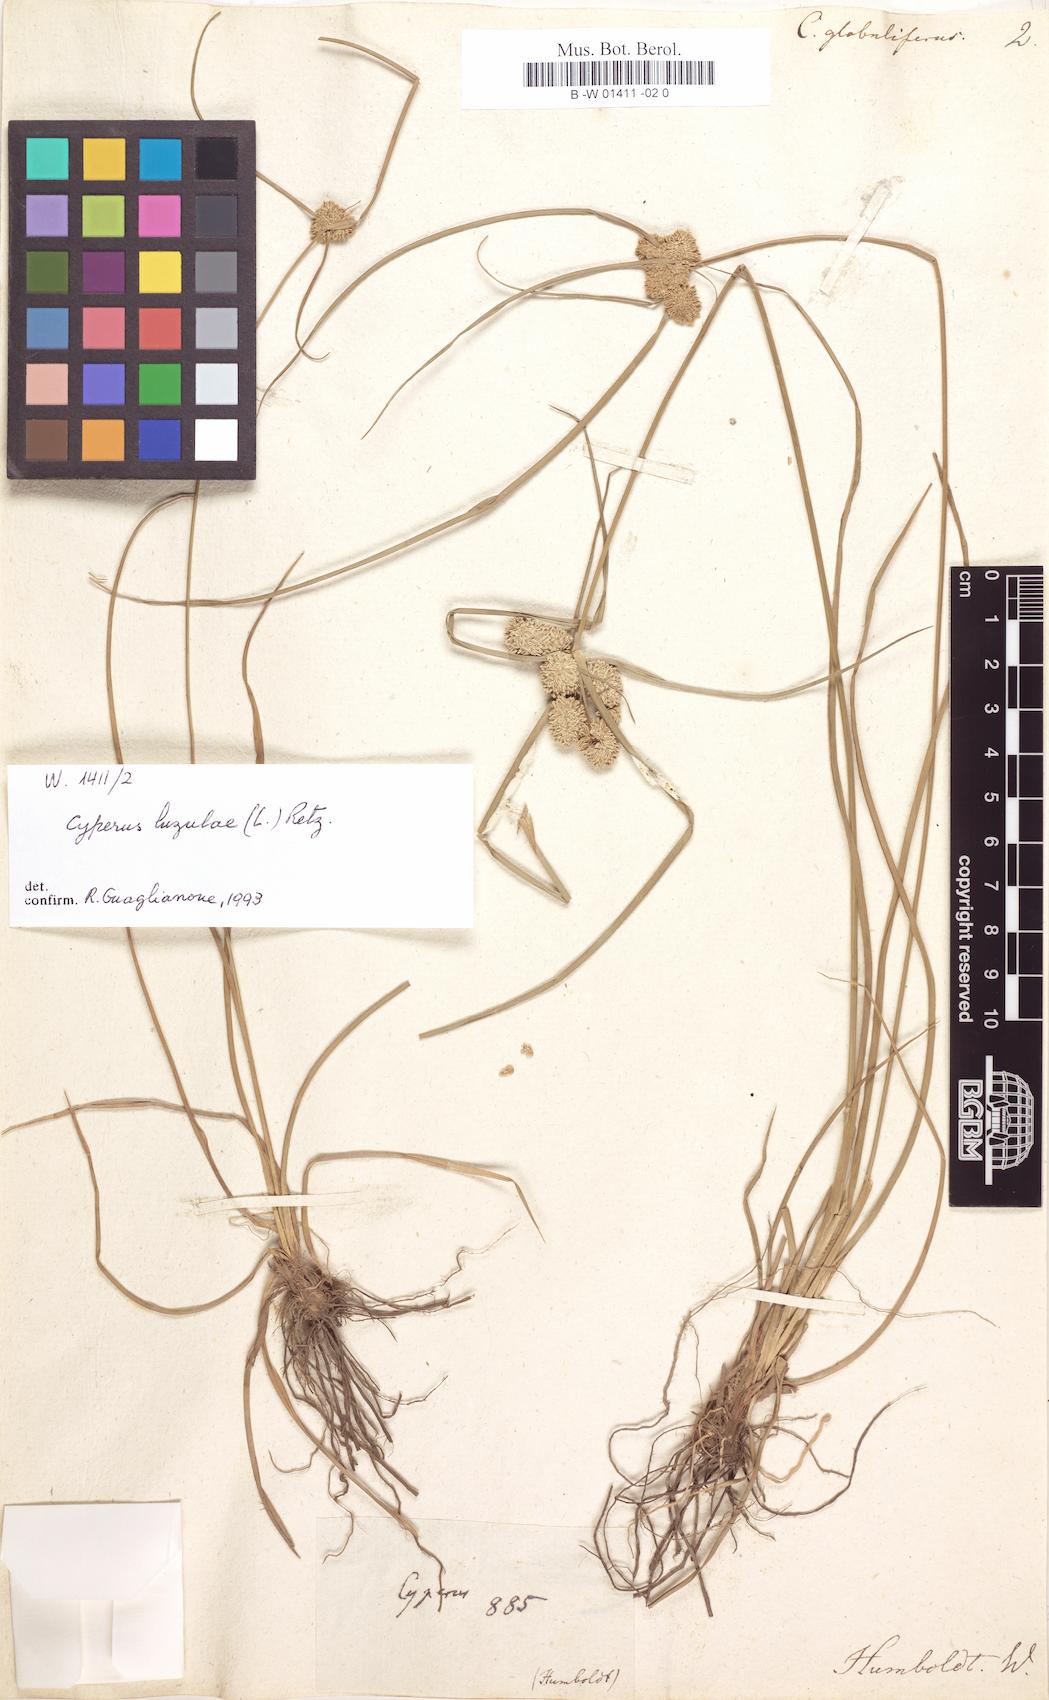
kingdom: Plantae
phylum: Tracheophyta
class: Liliopsida
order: Poales
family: Cyperaceae
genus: Cyperus
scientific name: Cyperus luzulae
